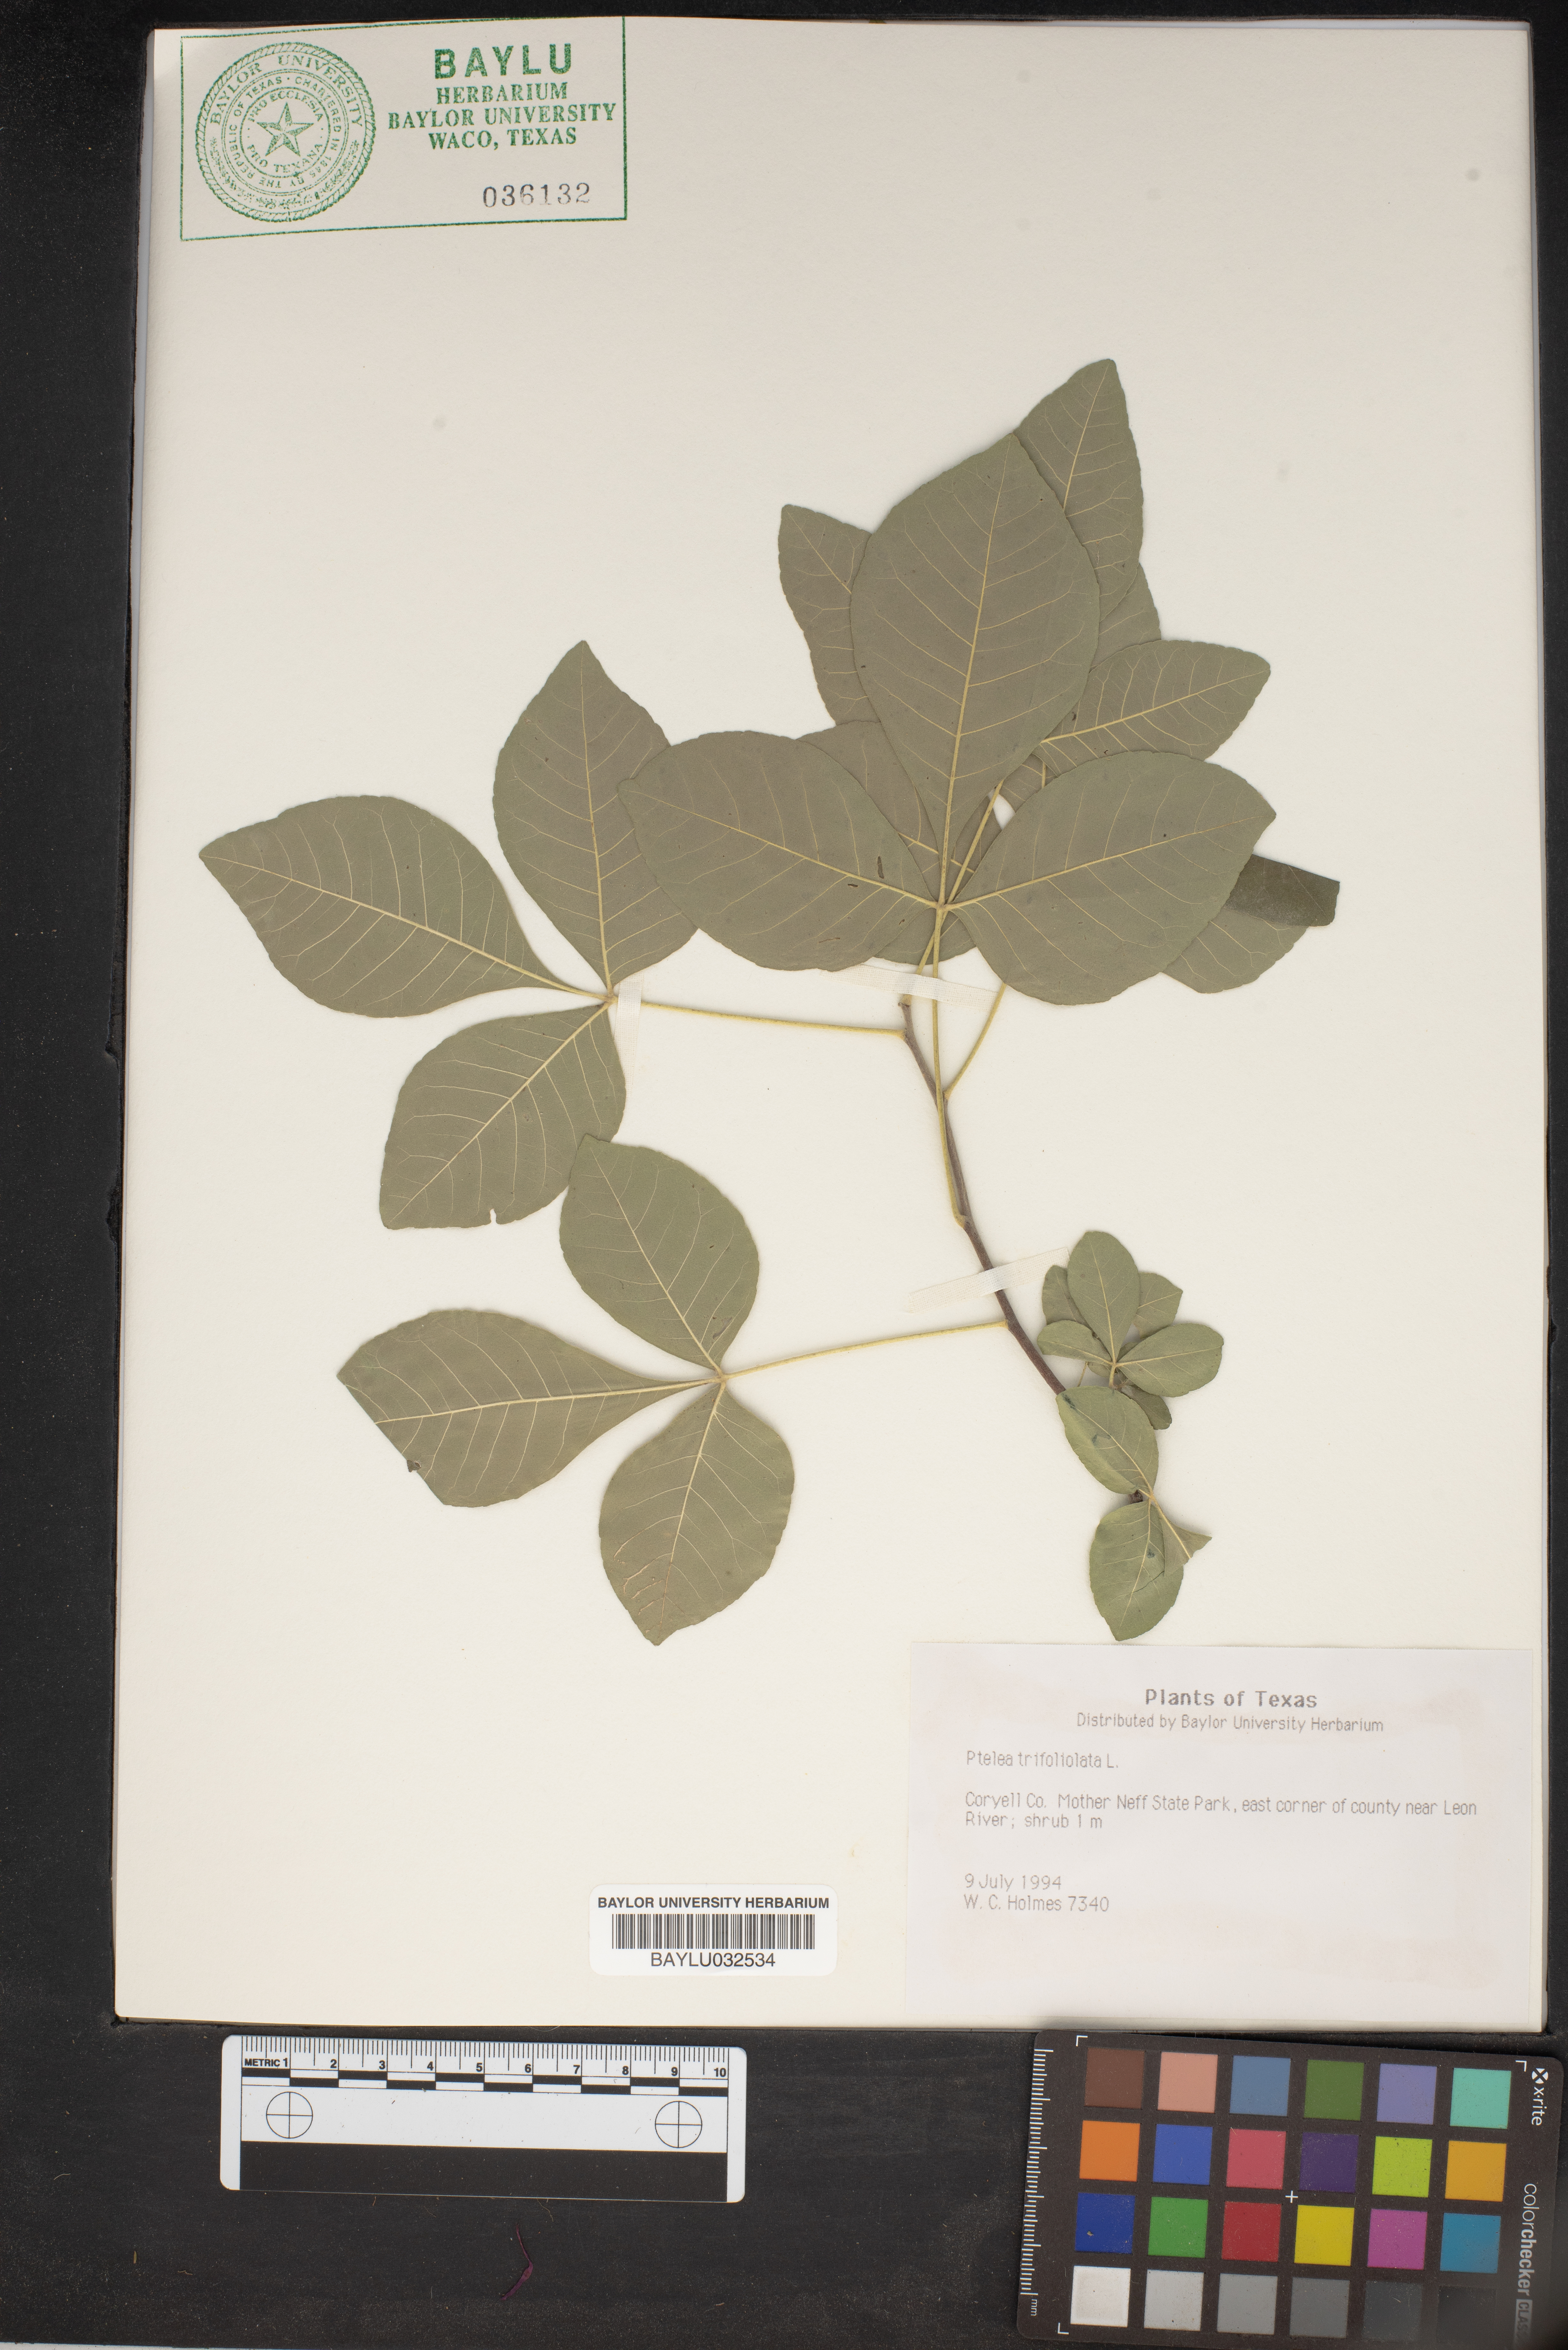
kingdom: Plantae
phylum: Tracheophyta
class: Magnoliopsida
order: Sapindales
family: Rutaceae
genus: Ptelea
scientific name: Ptelea trifoliata
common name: Common hop-tree
